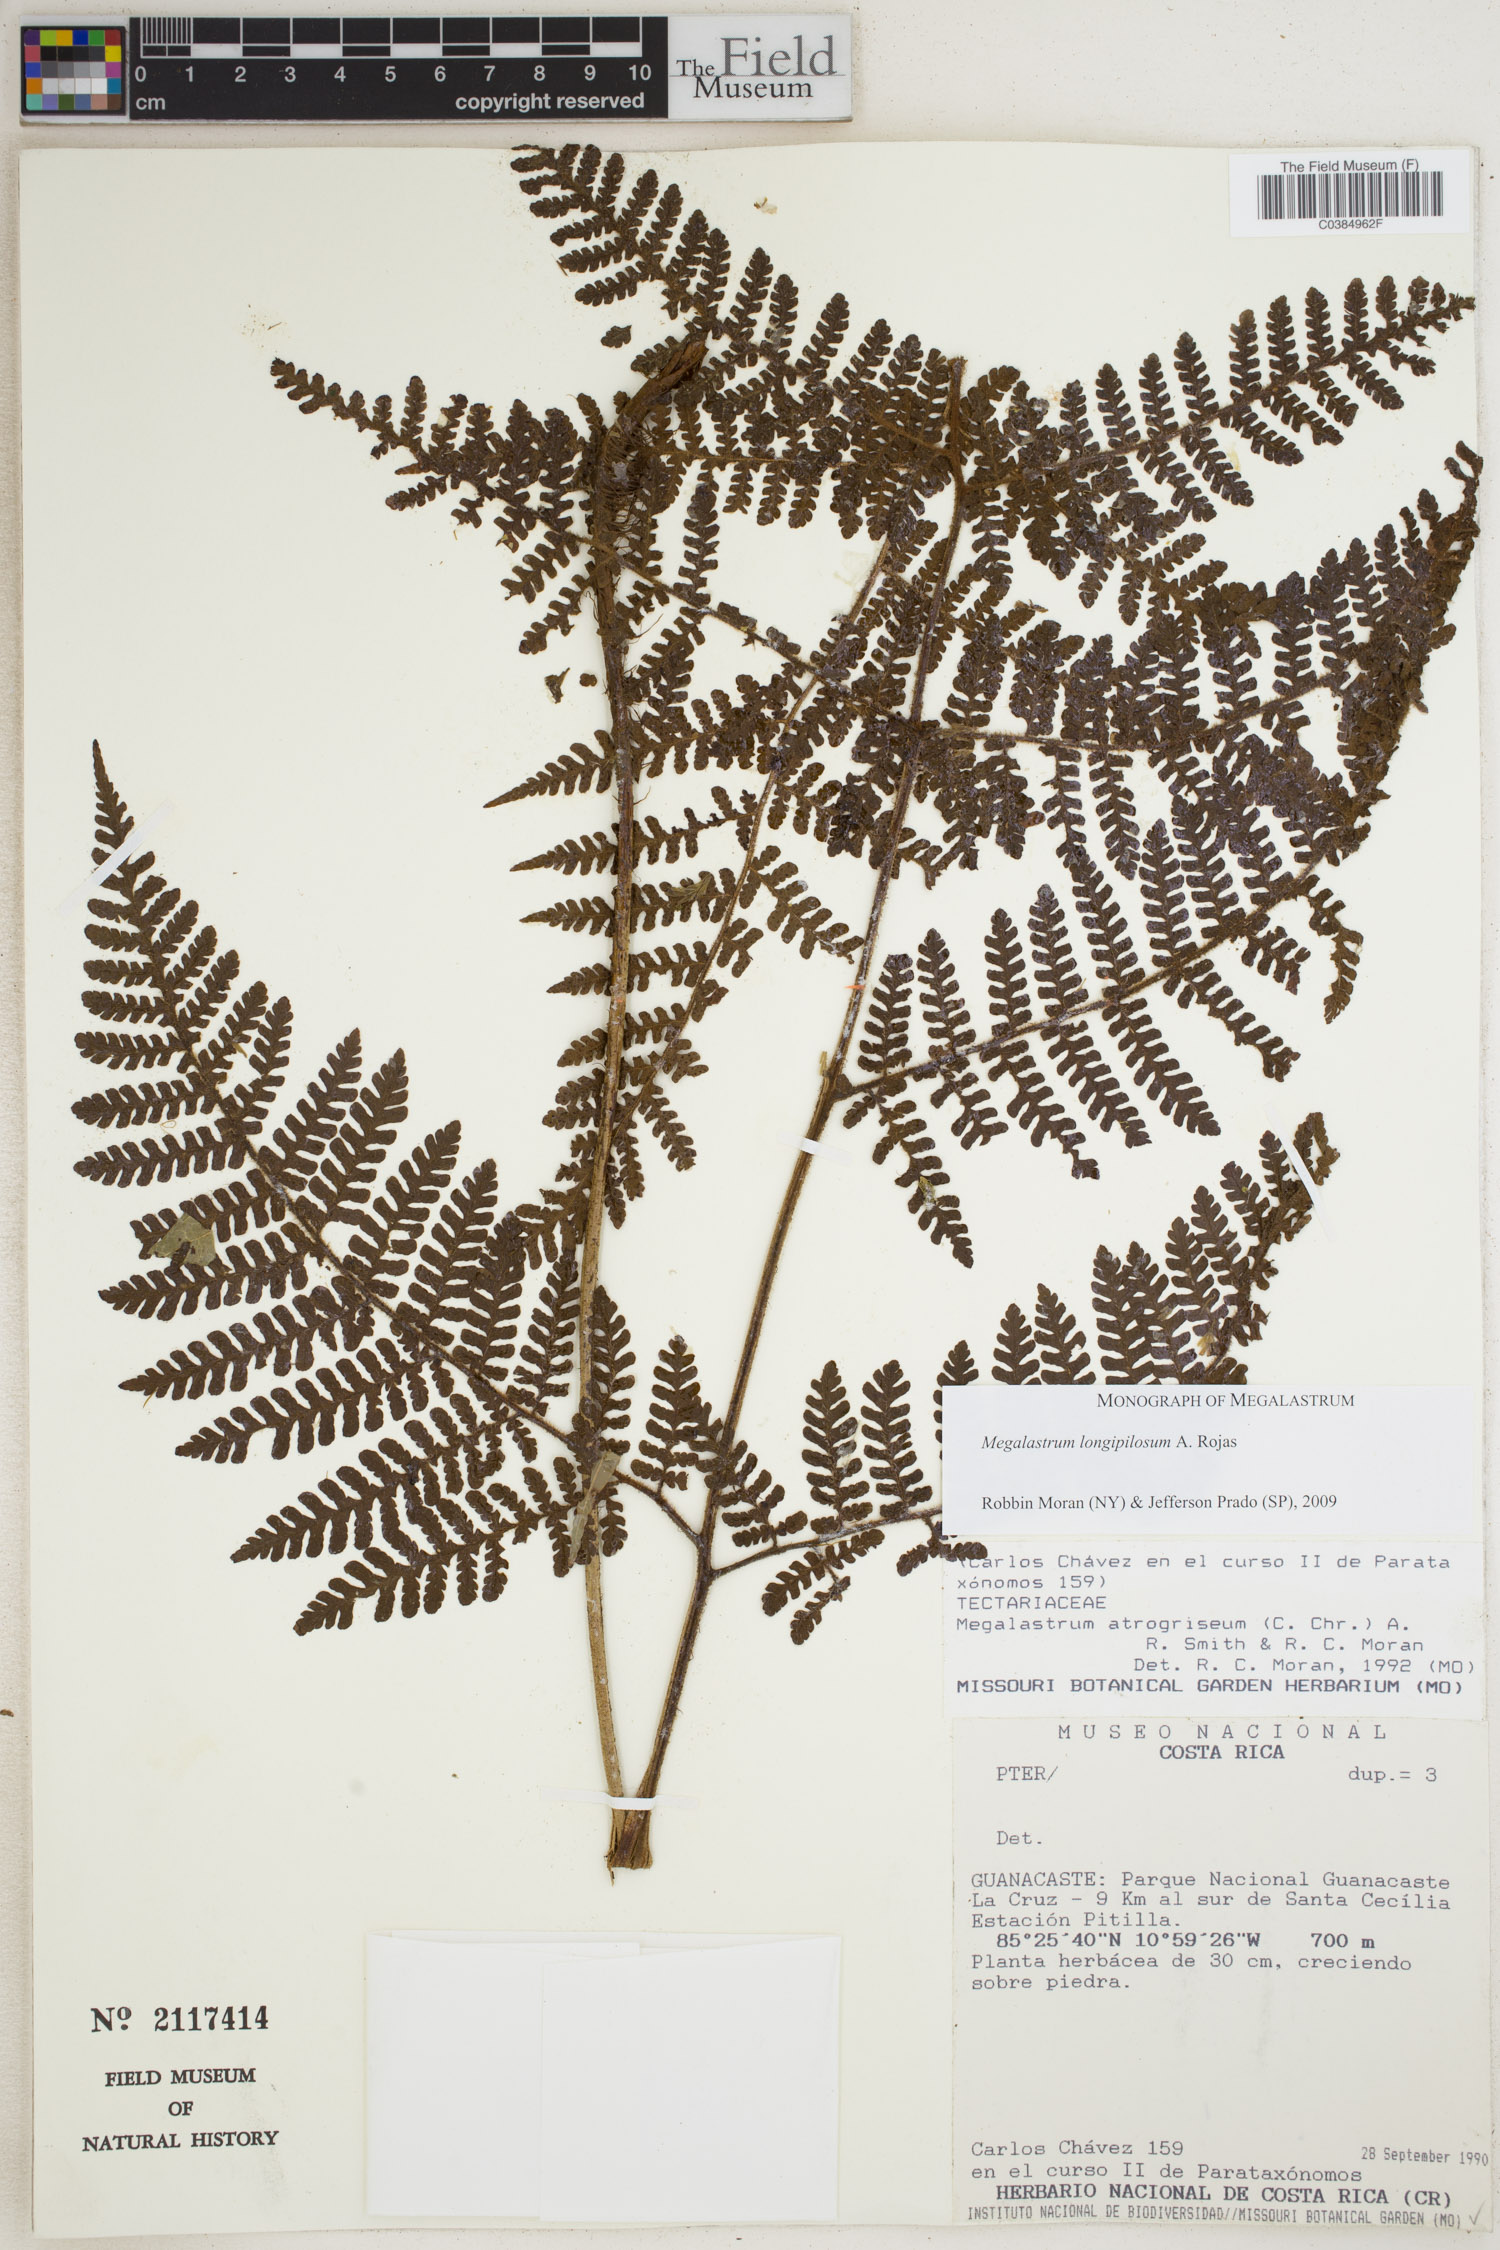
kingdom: Plantae
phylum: Tracheophyta
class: Polypodiopsida
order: Polypodiales
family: Dryopteridaceae
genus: Megalastrum
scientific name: Megalastrum longipilosum
